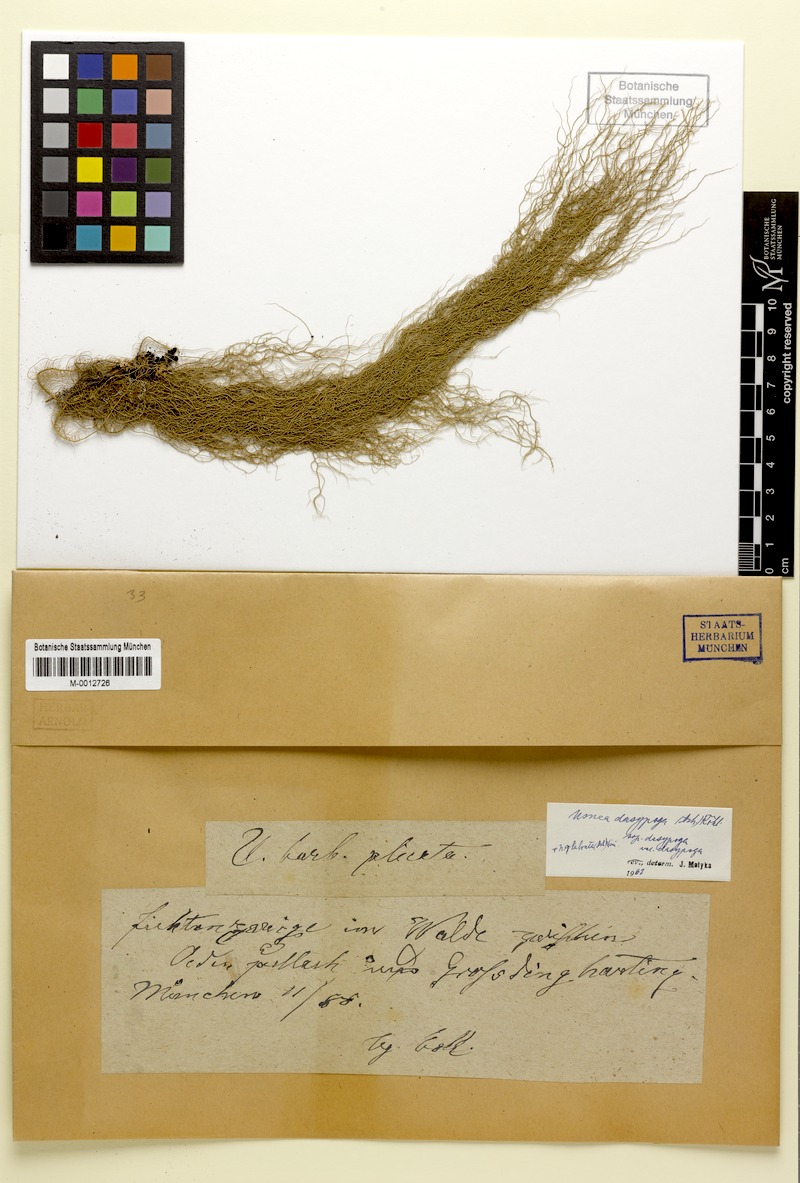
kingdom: Fungi
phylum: Ascomycota
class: Lecanoromycetes
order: Lecanorales
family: Parmeliaceae
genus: Usnea
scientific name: Usnea dasopoga
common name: Fishbone beard lichen
